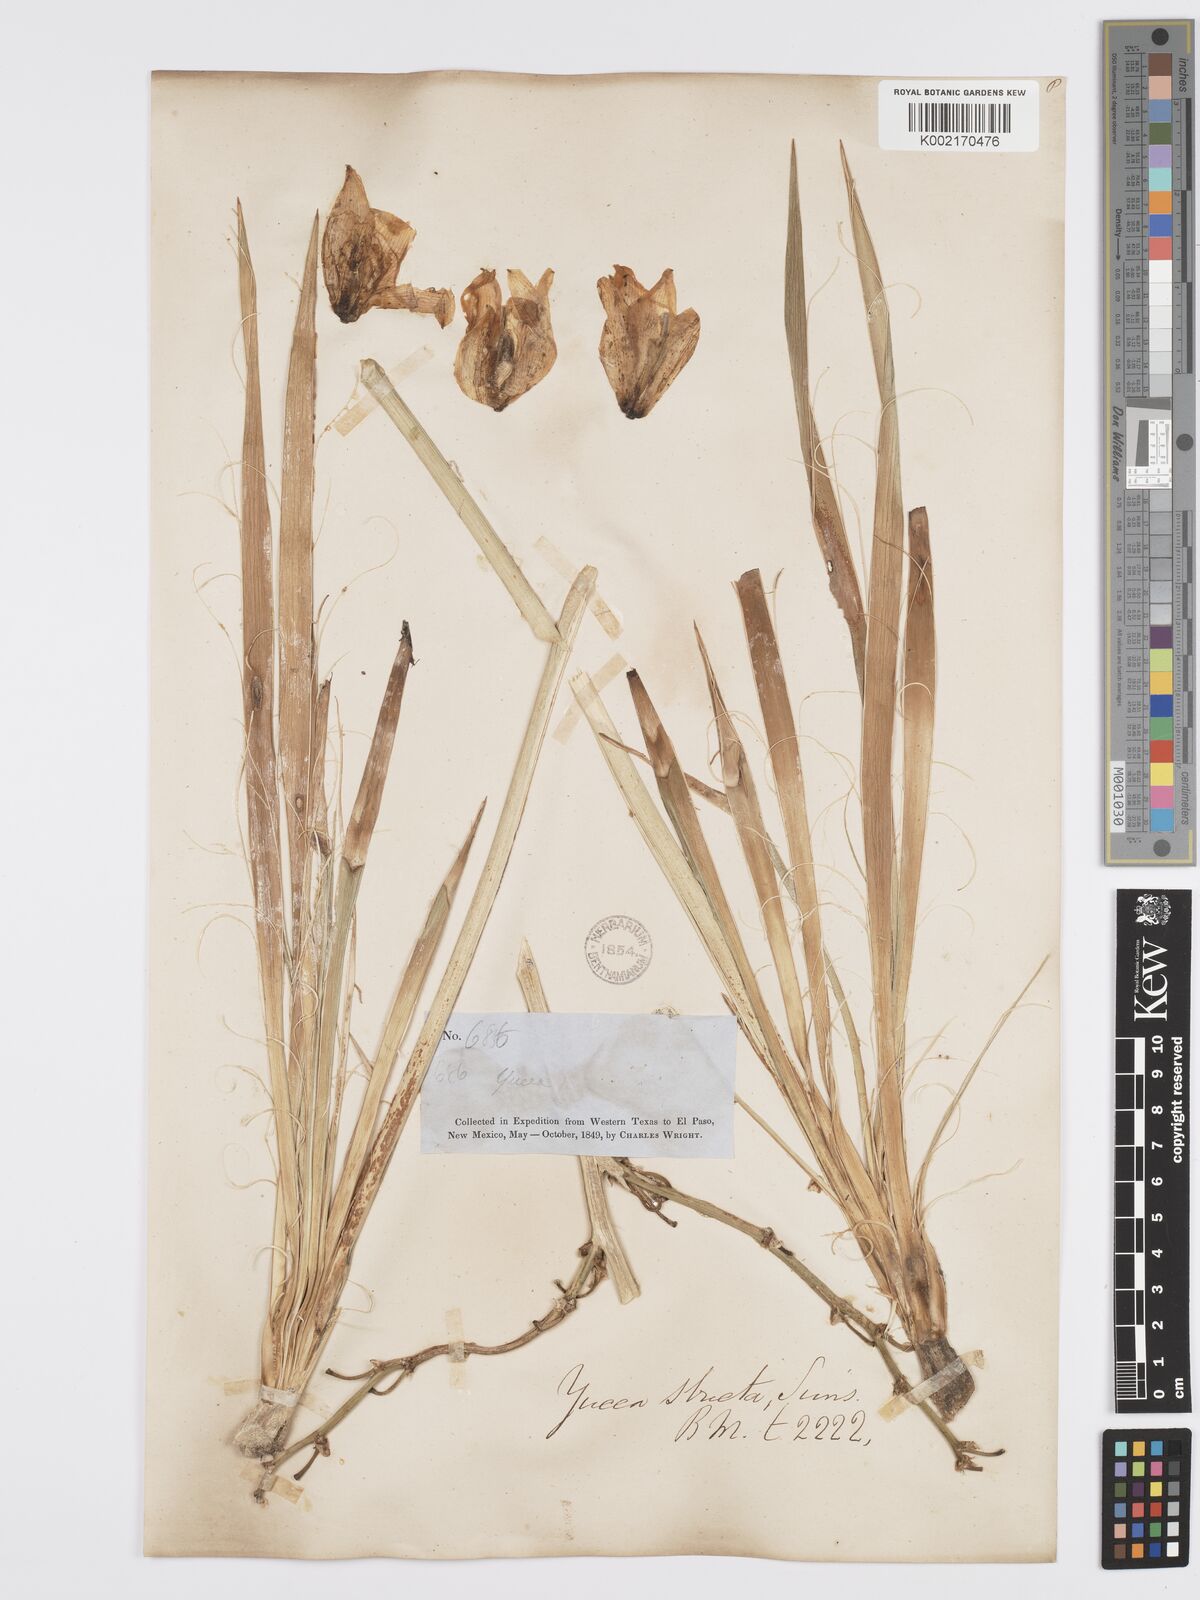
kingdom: Plantae
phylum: Tracheophyta
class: Liliopsida
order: Asparagales
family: Asparagaceae
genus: Yucca
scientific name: Yucca glauca
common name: Great plains yucca
